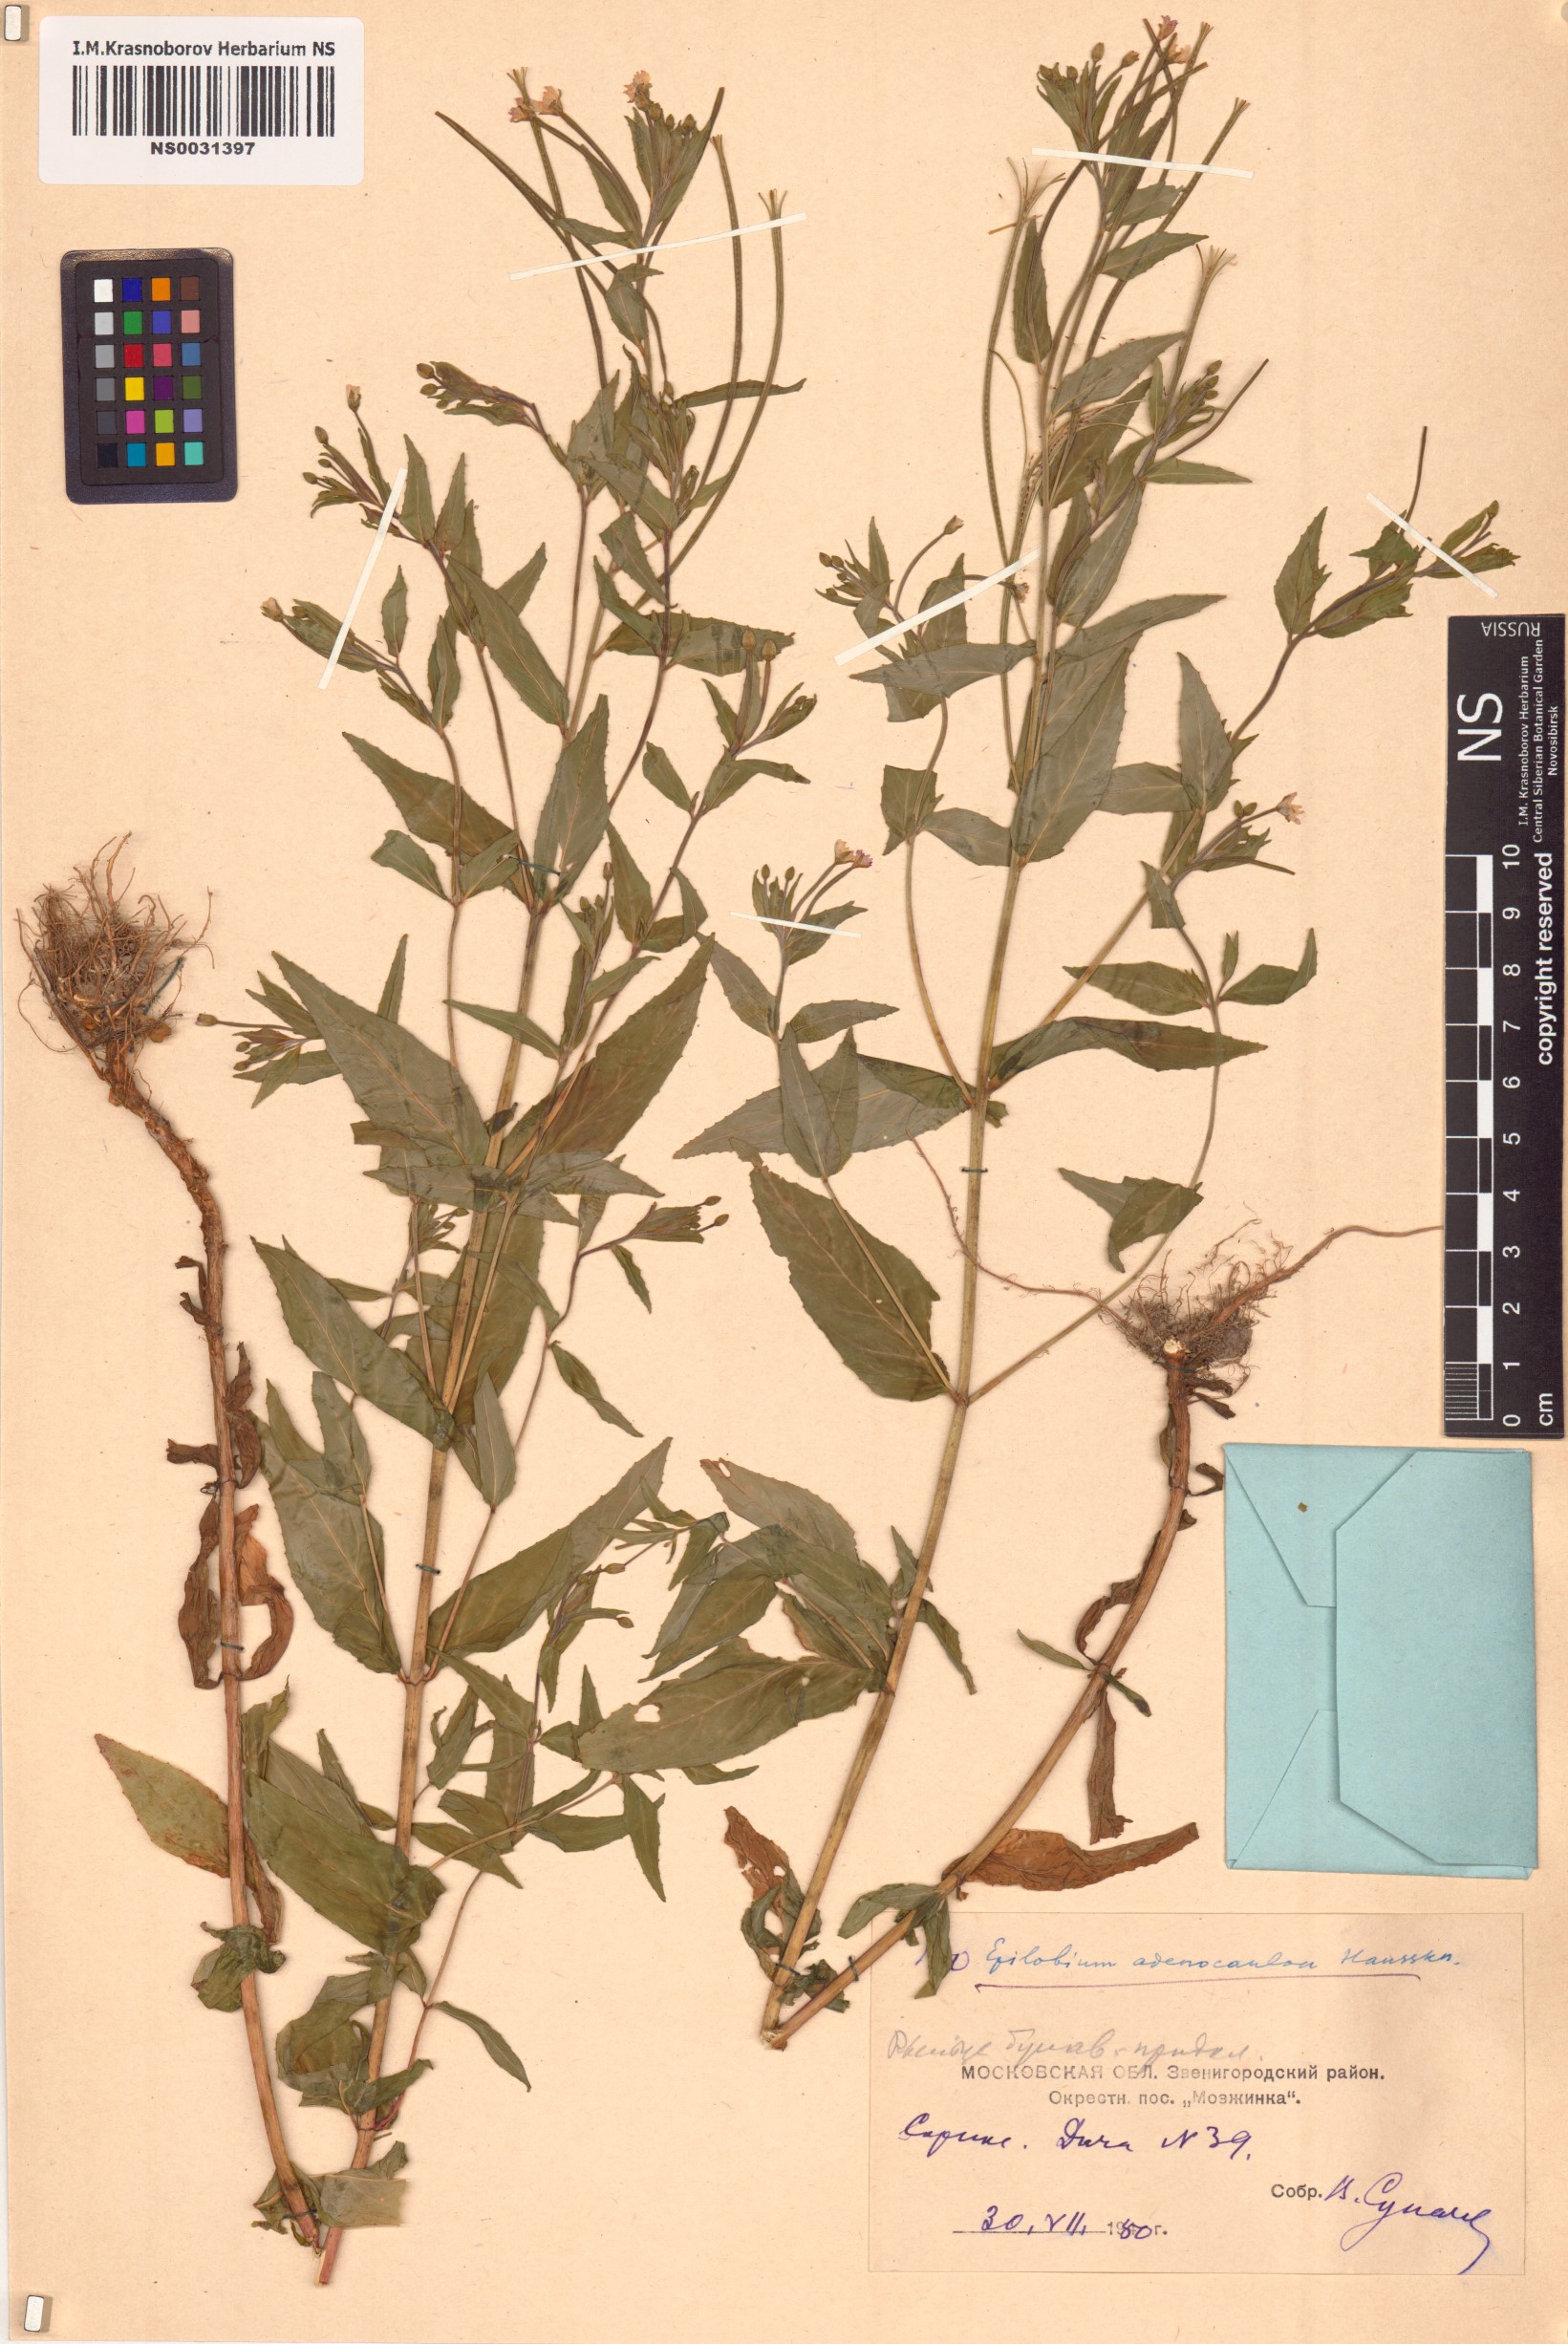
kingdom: Plantae
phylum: Tracheophyta
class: Magnoliopsida
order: Myrtales
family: Onagraceae
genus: Epilobium
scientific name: Epilobium ciliatum
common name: American willowherb
